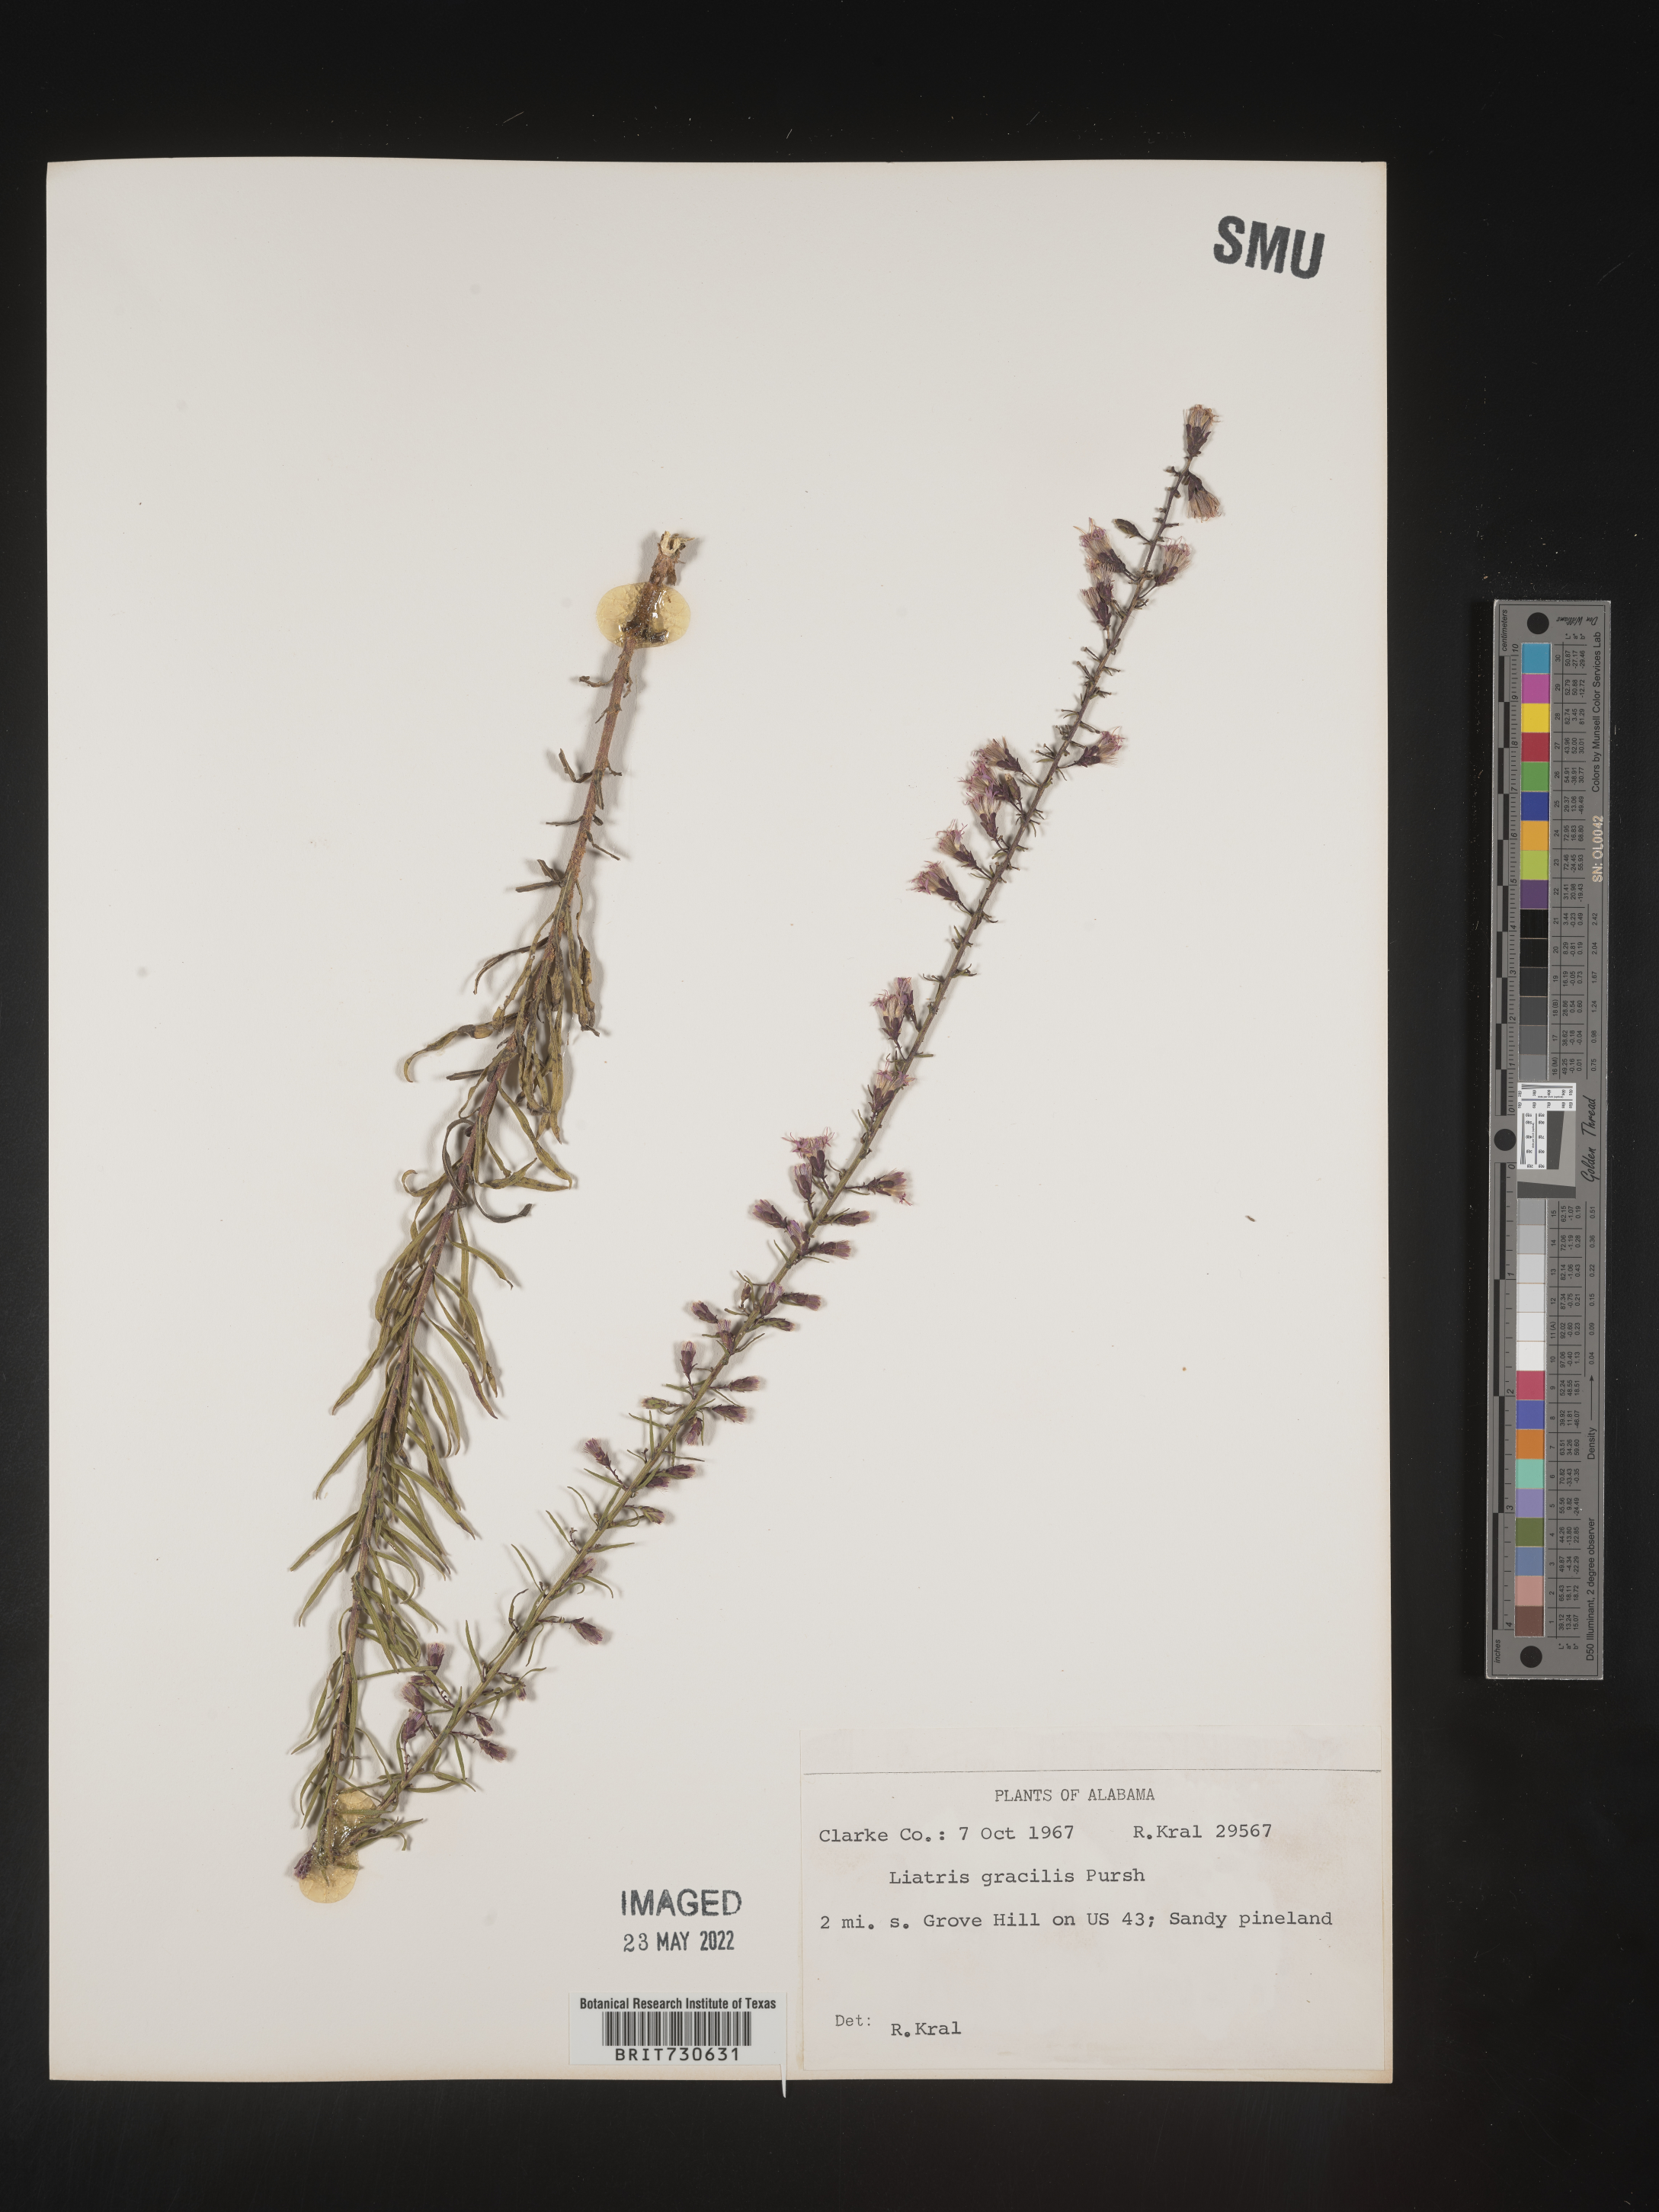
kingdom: Plantae
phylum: Tracheophyta
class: Magnoliopsida
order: Asterales
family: Asteraceae
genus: Liatris
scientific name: Liatris gracilis
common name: Slender gayfeather
